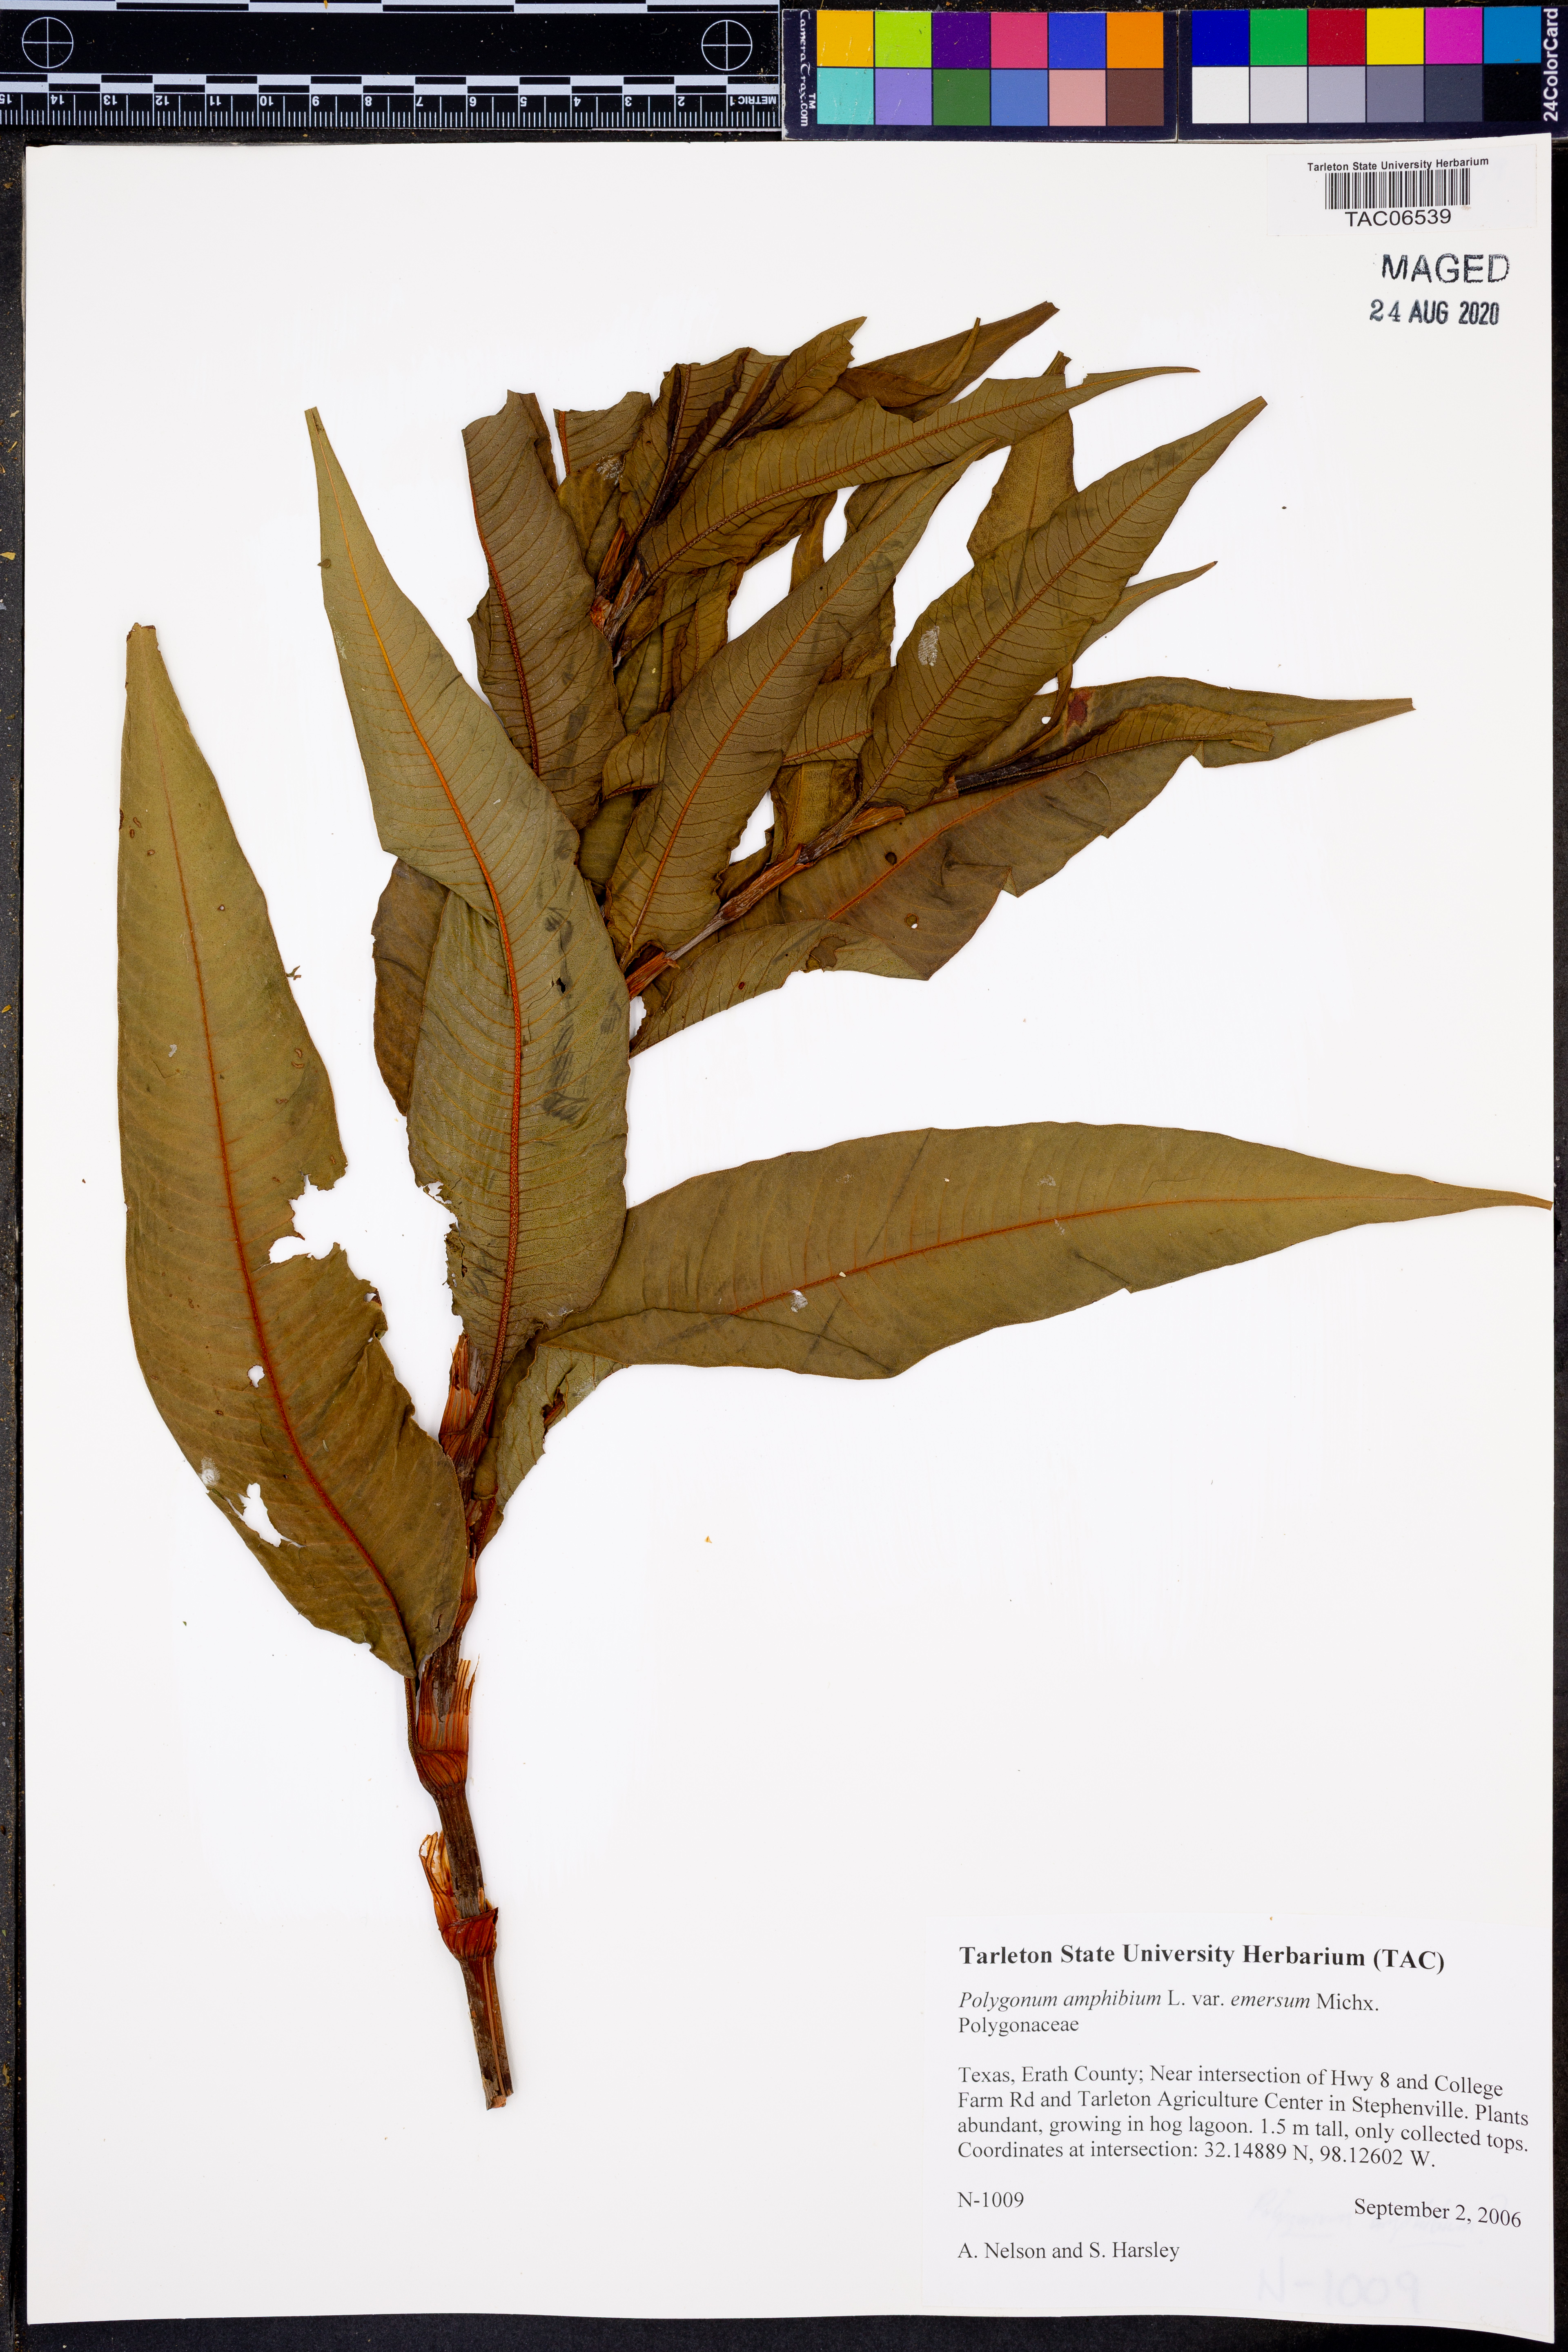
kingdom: Plantae
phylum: Tracheophyta
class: Magnoliopsida
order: Caryophyllales
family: Polygonaceae
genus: Persicaria
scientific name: Persicaria amphibia
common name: Amphibious bistort
